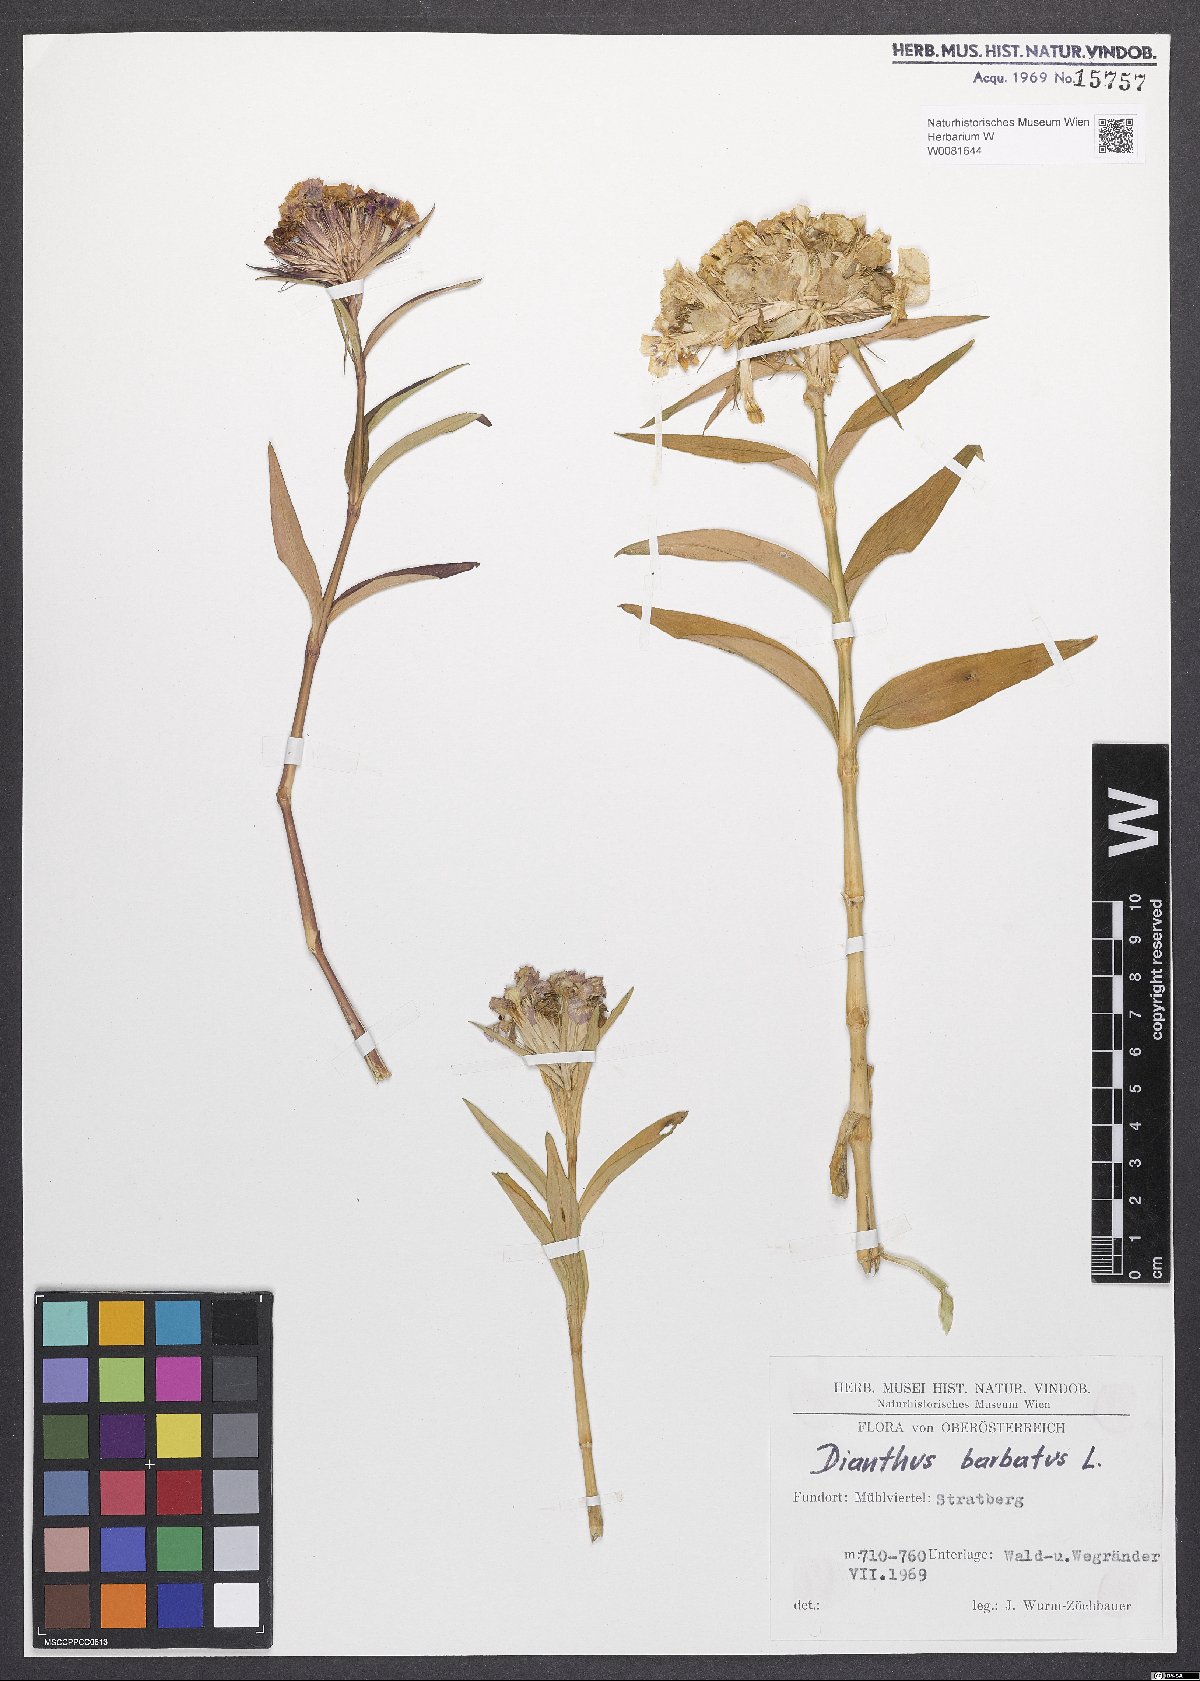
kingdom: Plantae
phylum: Tracheophyta
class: Magnoliopsida
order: Caryophyllales
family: Caryophyllaceae
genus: Dianthus
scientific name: Dianthus barbatus
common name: Sweet-william
